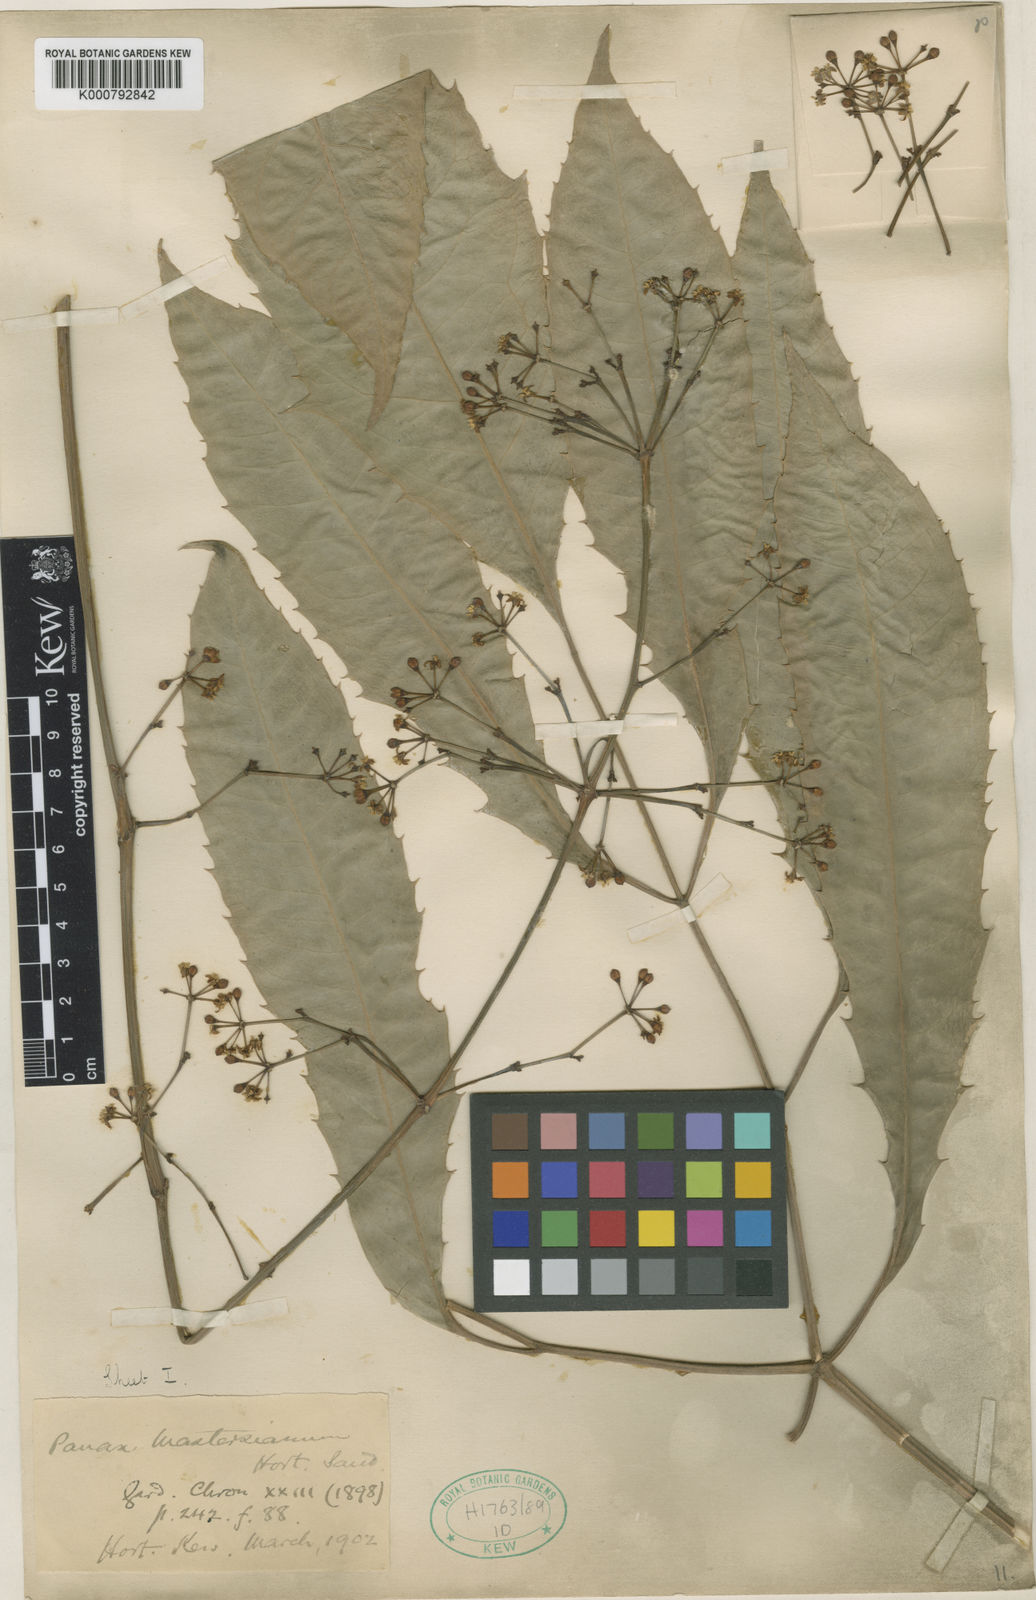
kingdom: Plantae
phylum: Tracheophyta
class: Magnoliopsida
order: Apiales
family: Araliaceae
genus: Polyscias
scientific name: Polyscias
